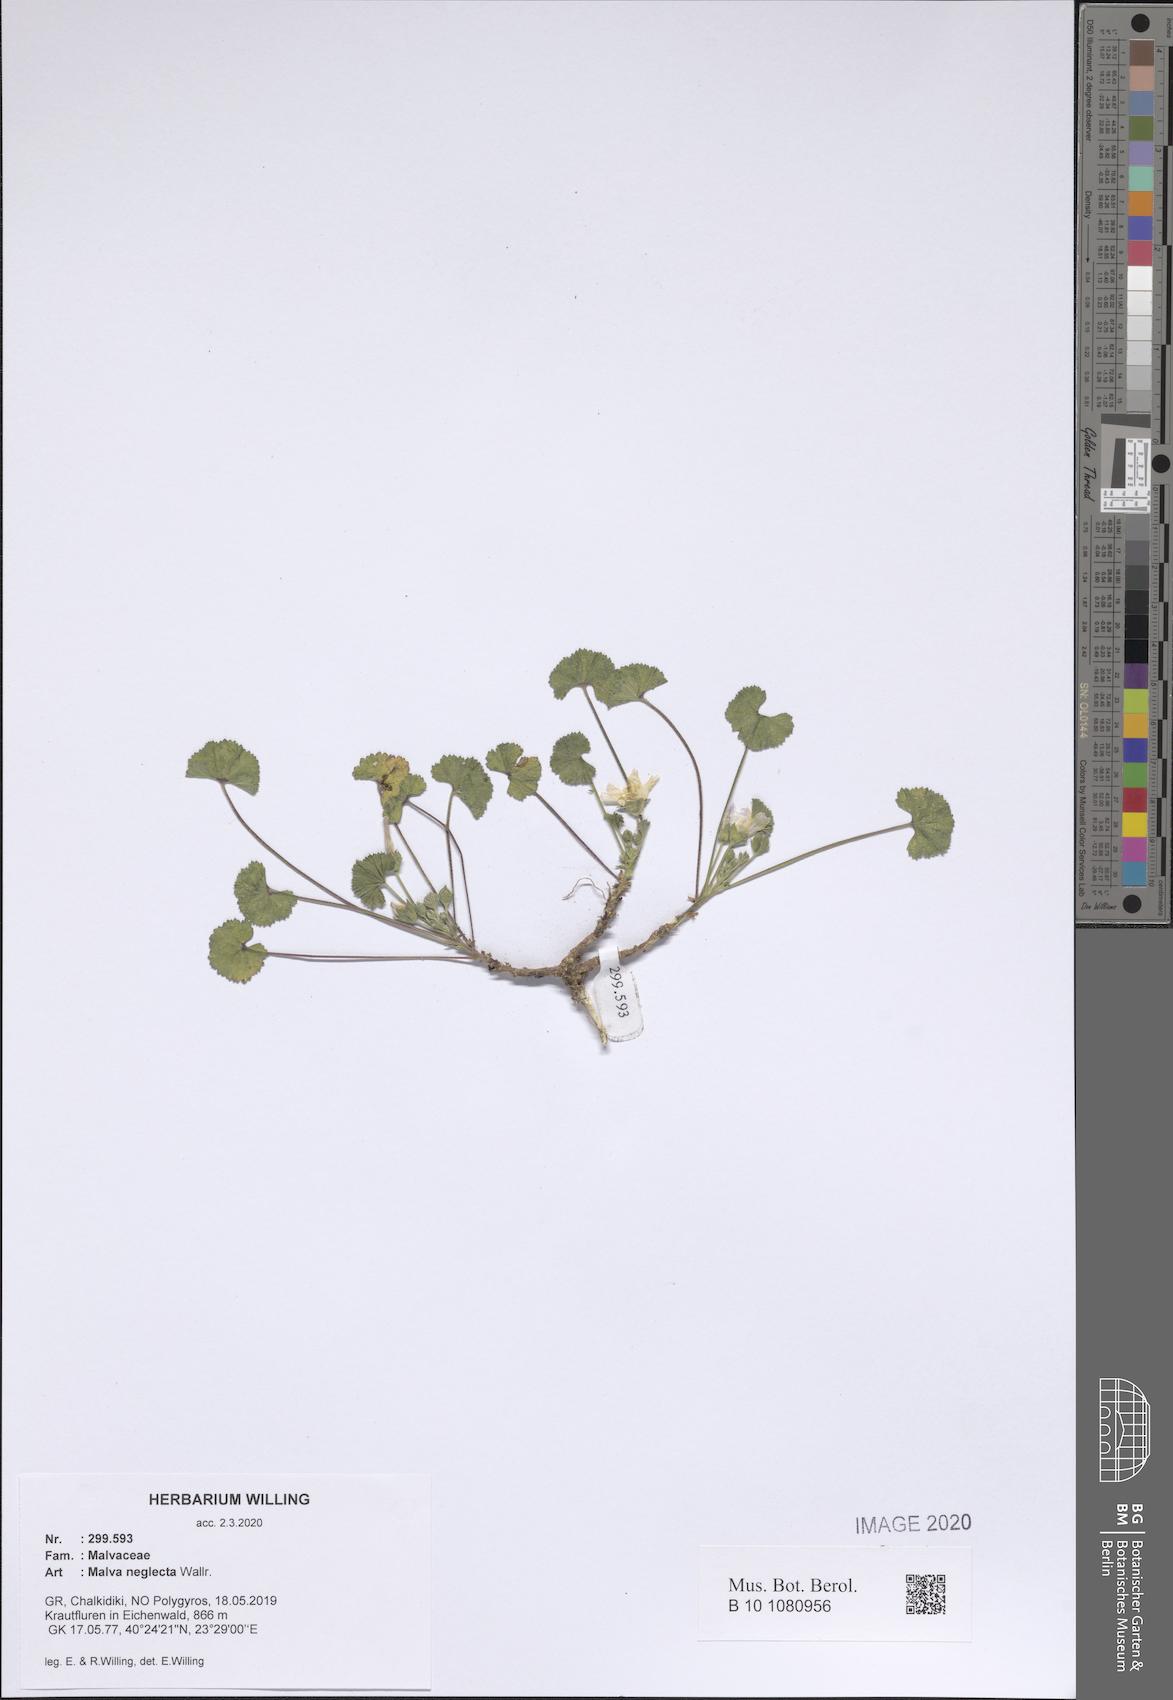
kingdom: Plantae
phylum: Tracheophyta
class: Magnoliopsida
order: Malvales
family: Malvaceae
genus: Malva
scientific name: Malva neglecta
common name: Common mallow
